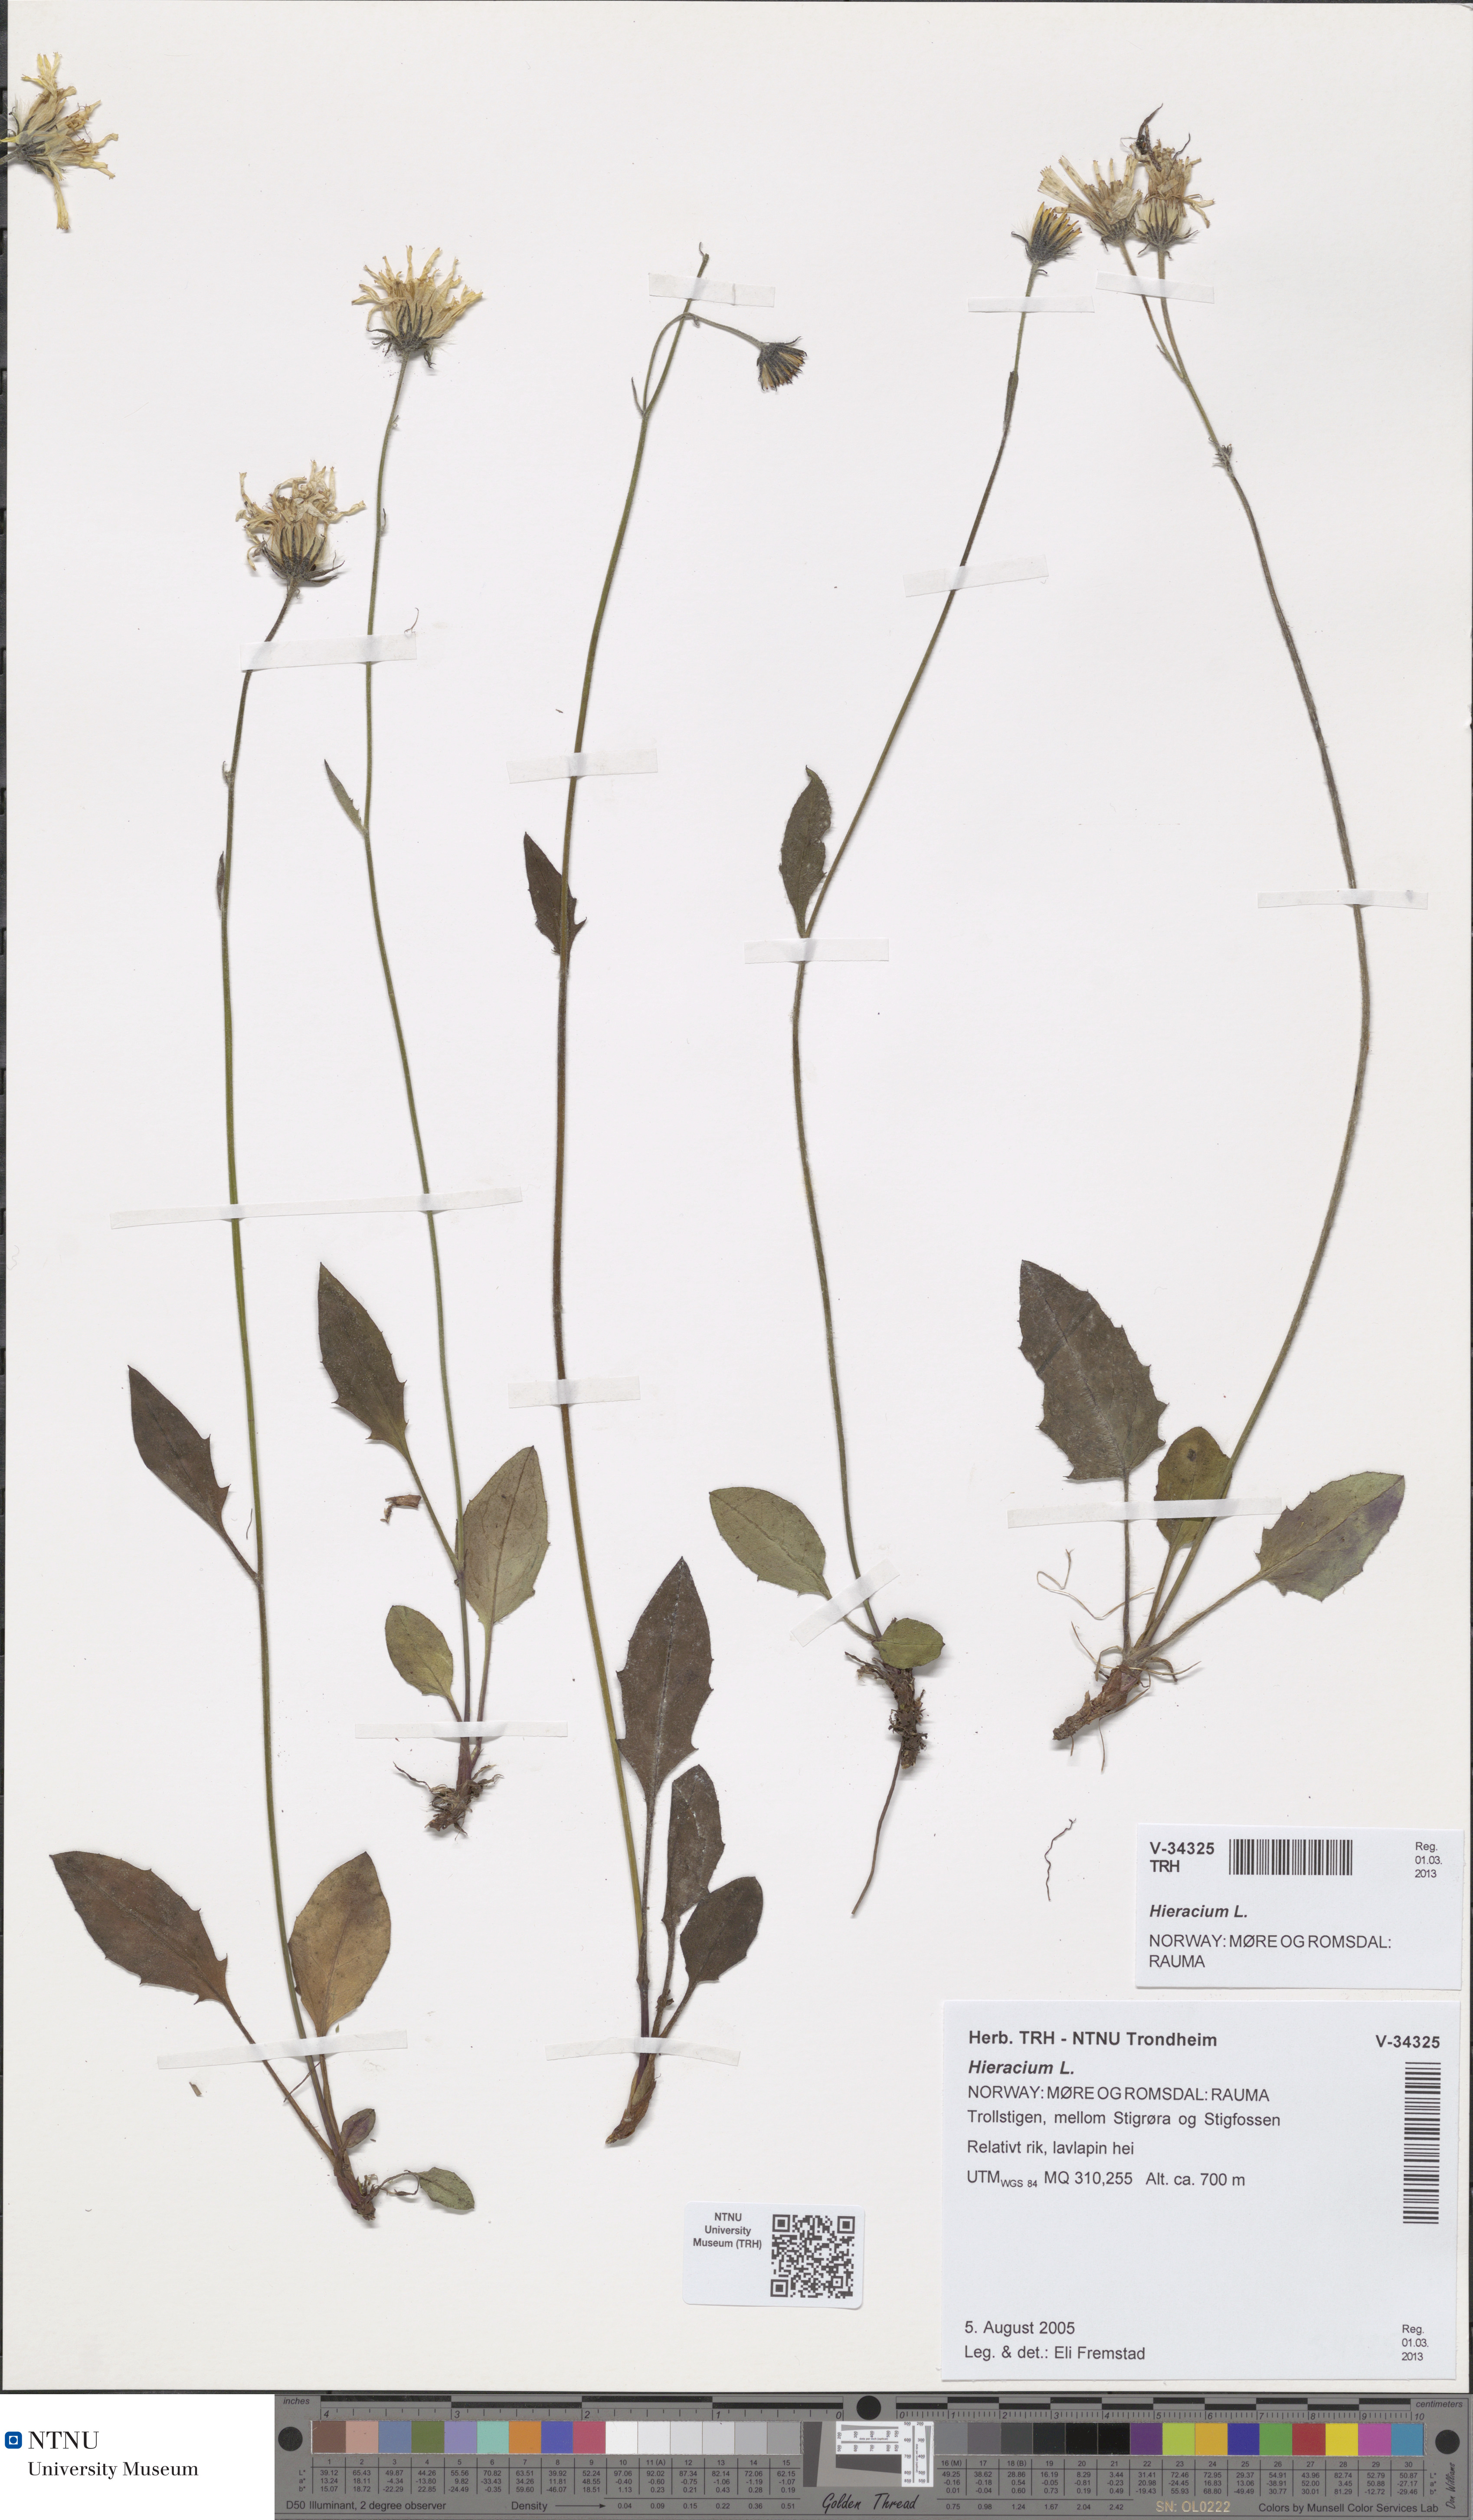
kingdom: Plantae
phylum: Tracheophyta
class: Magnoliopsida
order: Asterales
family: Asteraceae
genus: Hieracium
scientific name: Hieracium
